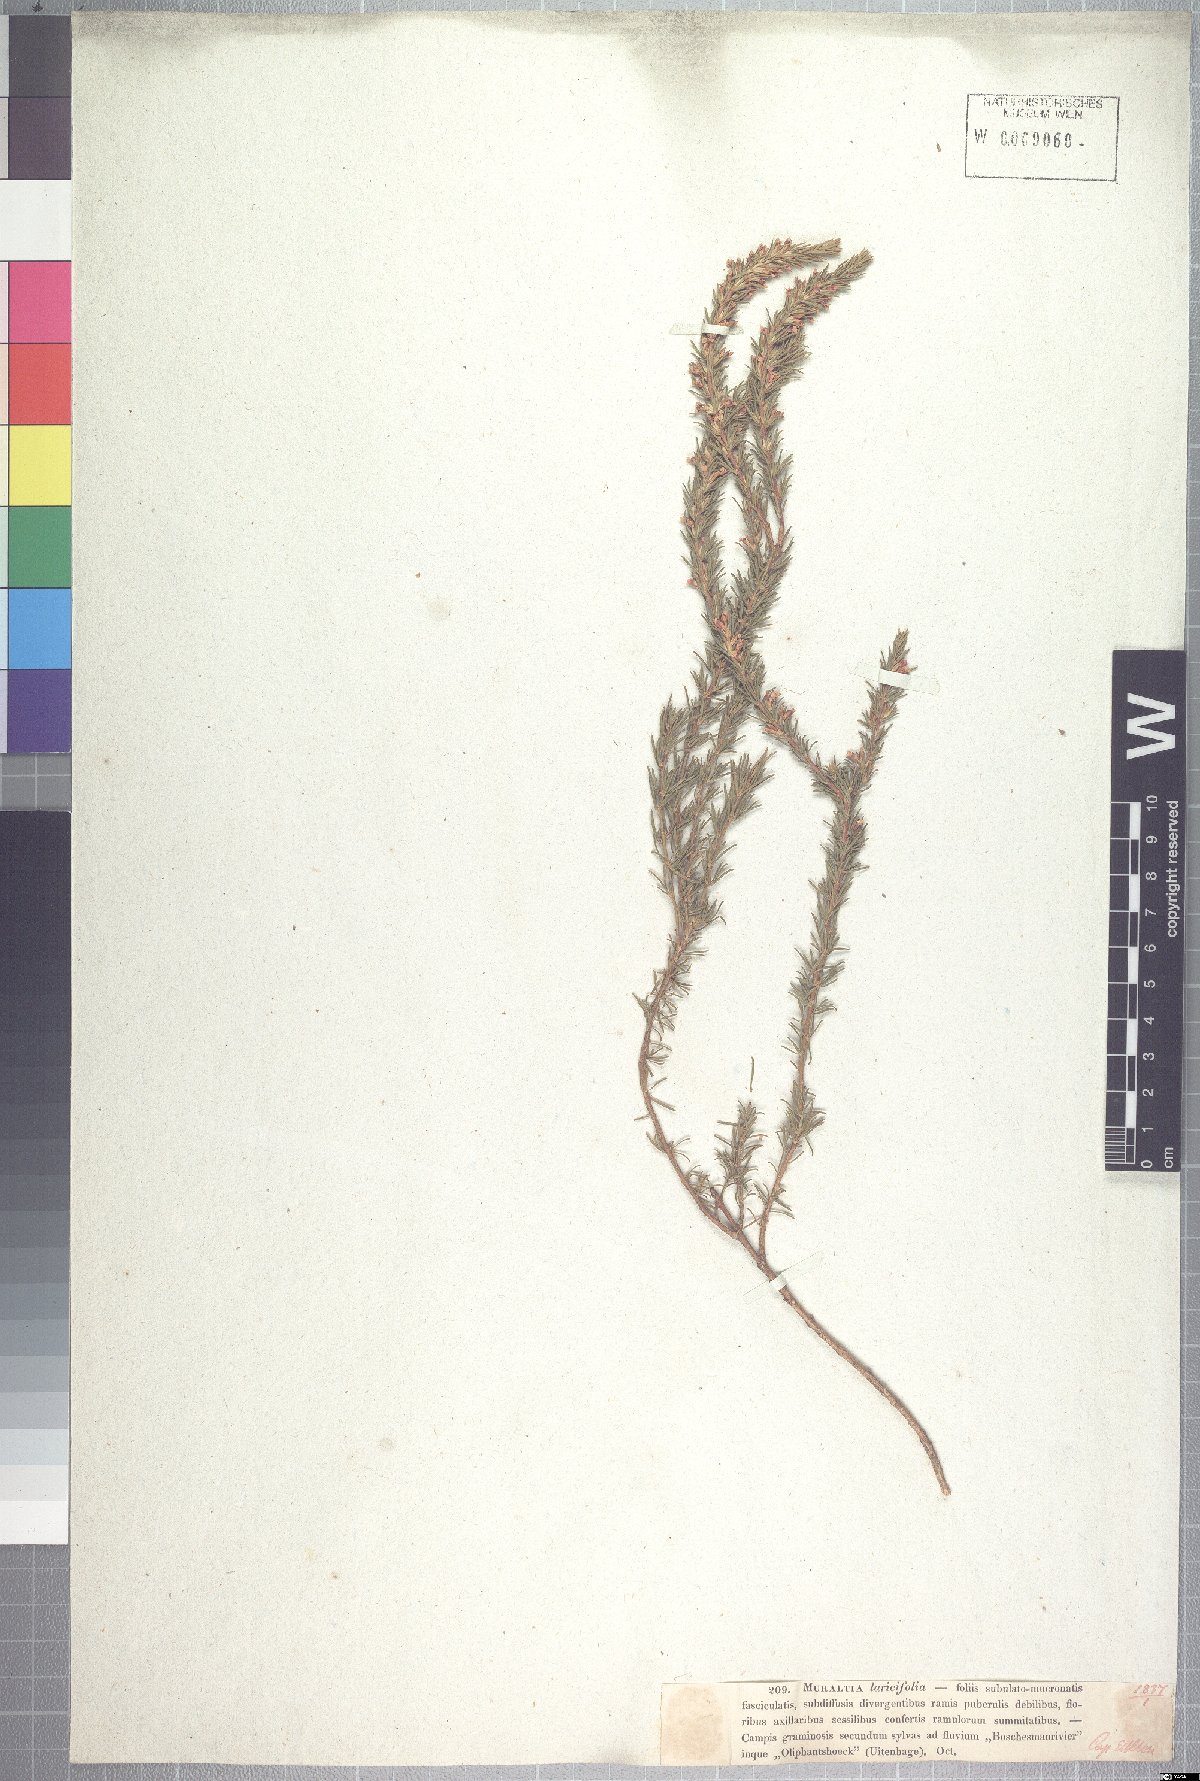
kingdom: Plantae
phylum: Tracheophyta
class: Magnoliopsida
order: Fabales
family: Polygalaceae
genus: Muraltia
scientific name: Muraltia macroceras
